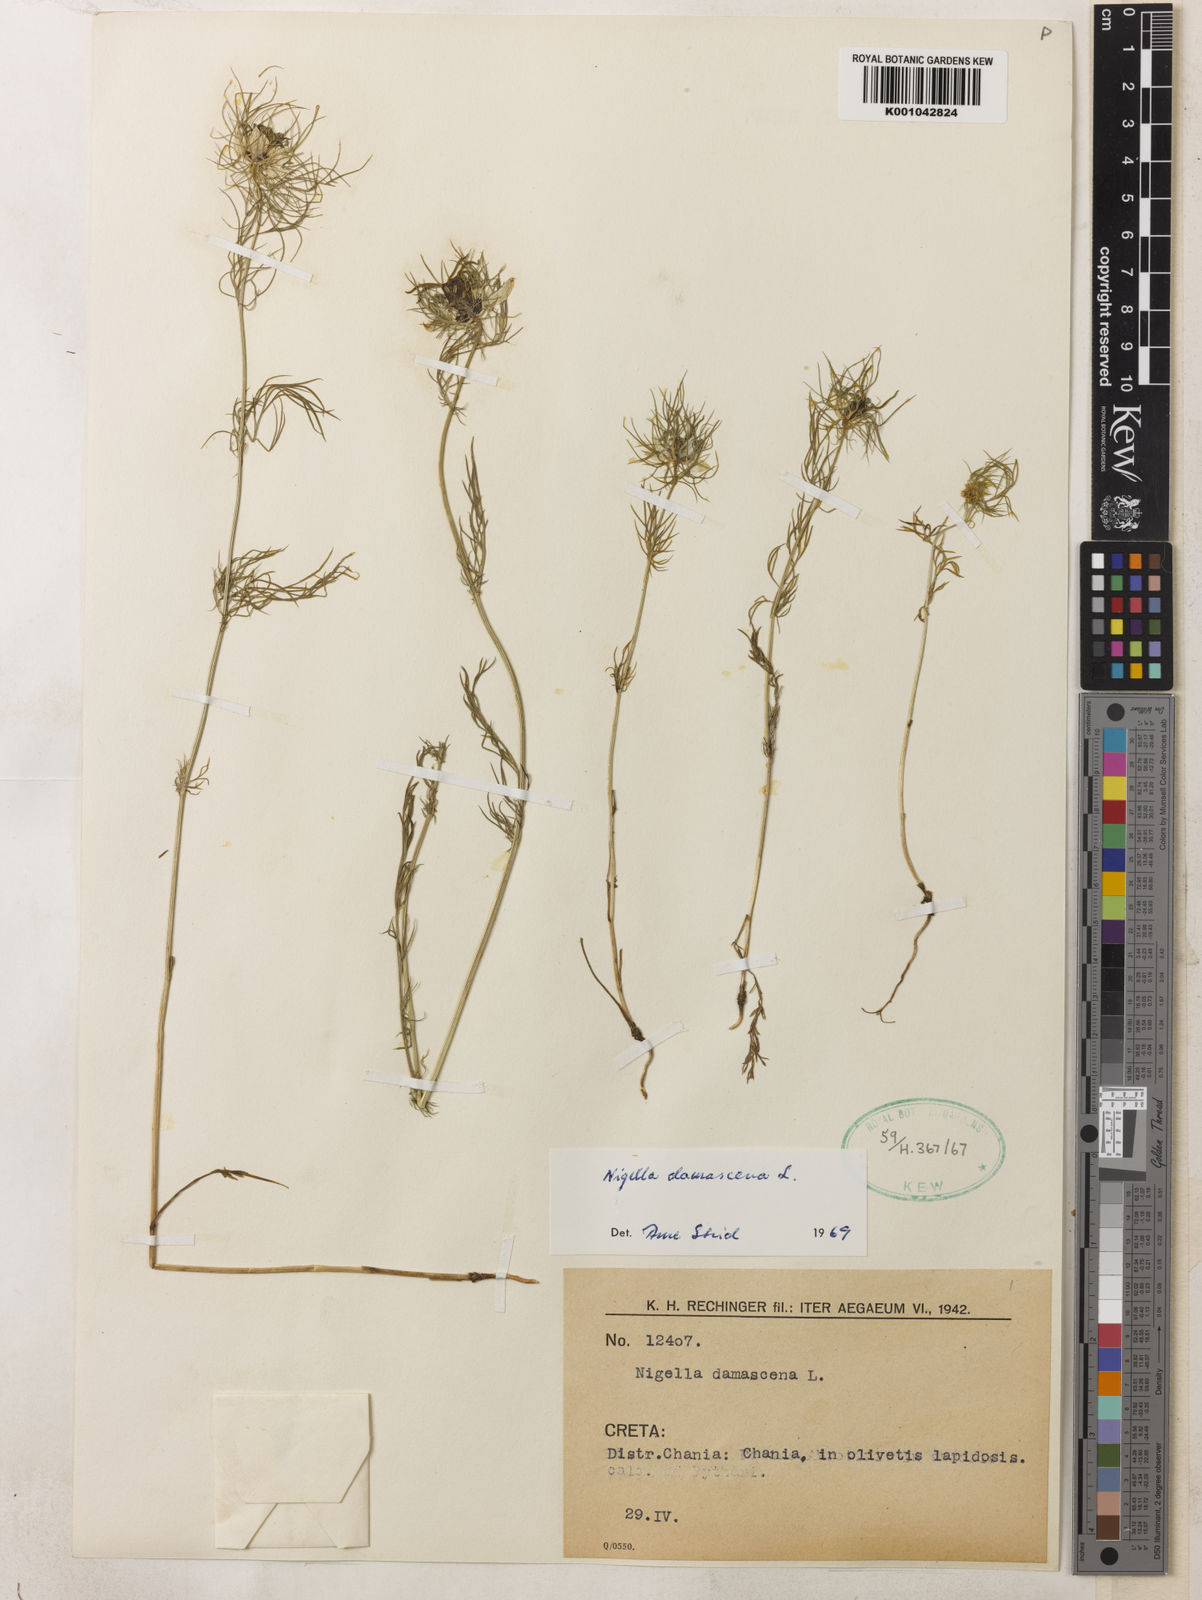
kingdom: Plantae
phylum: Tracheophyta
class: Magnoliopsida
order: Ranunculales
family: Ranunculaceae
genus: Nigella
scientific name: Nigella damascena
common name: Love-in-a-mist
